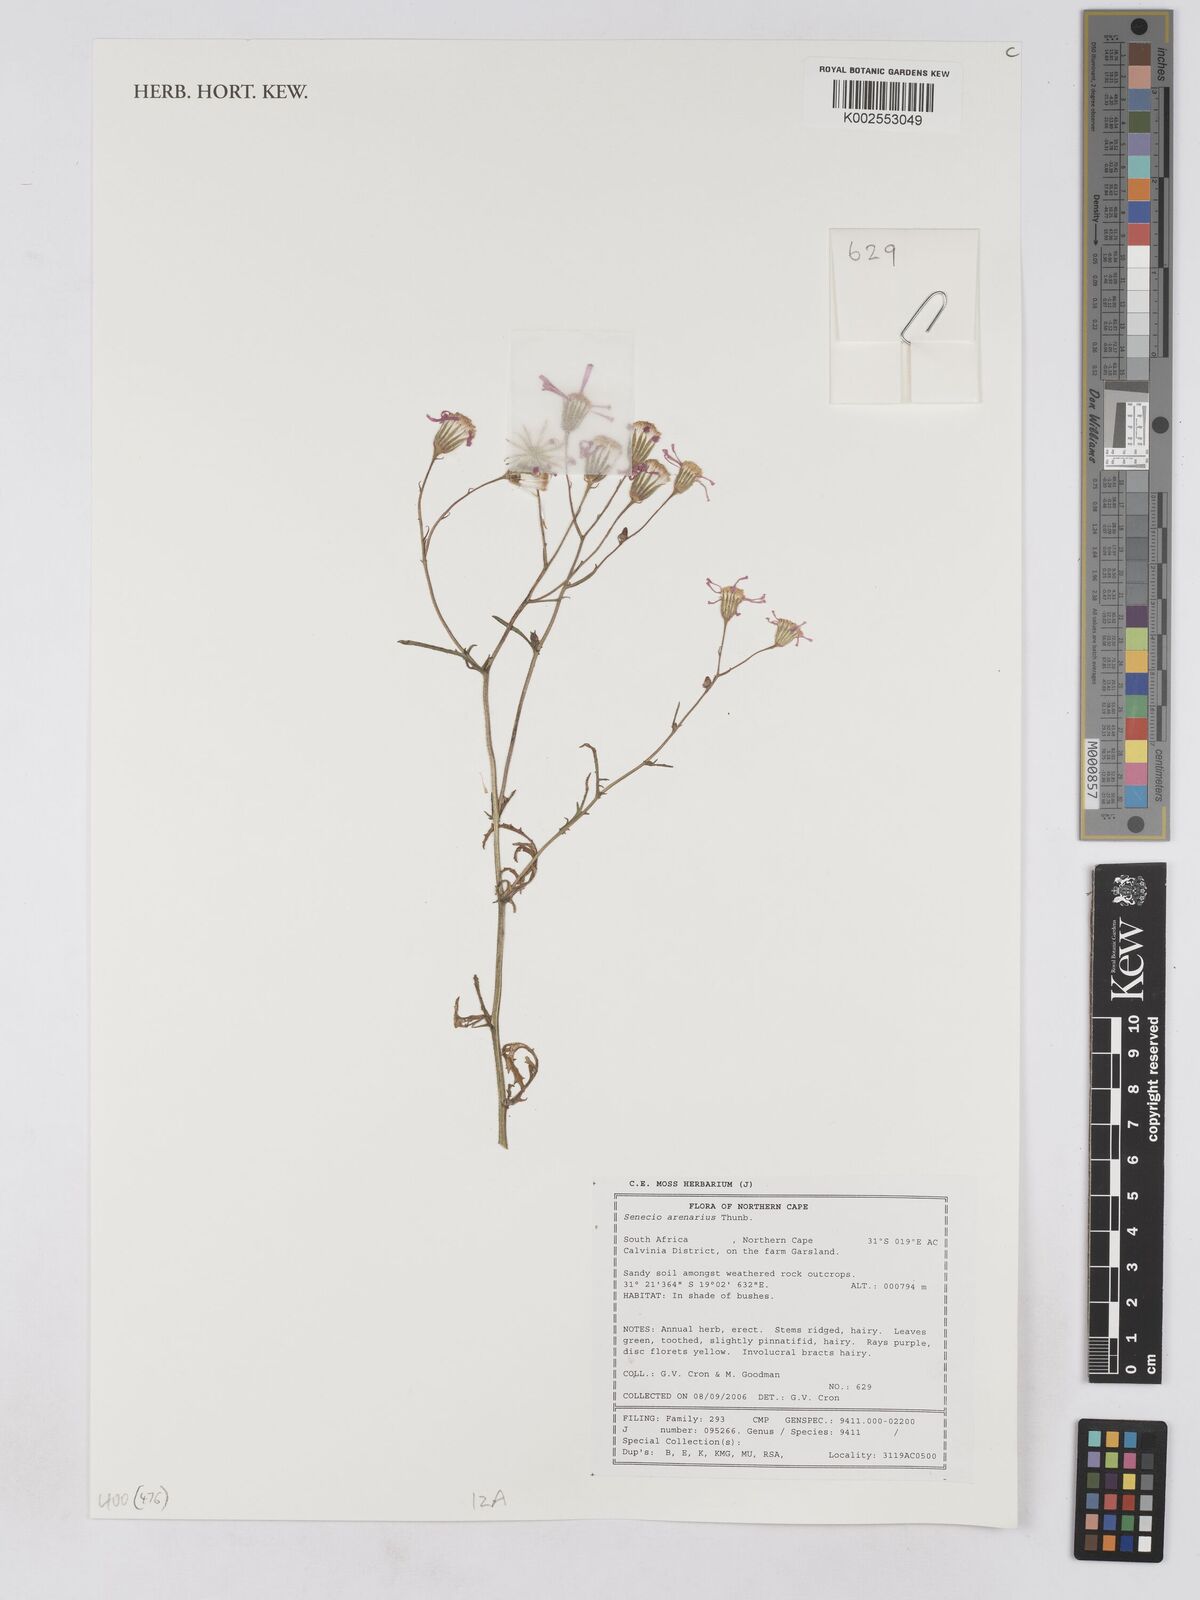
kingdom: Plantae
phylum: Tracheophyta
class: Magnoliopsida
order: Asterales
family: Asteraceae
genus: Senecio
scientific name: Senecio arenarius
